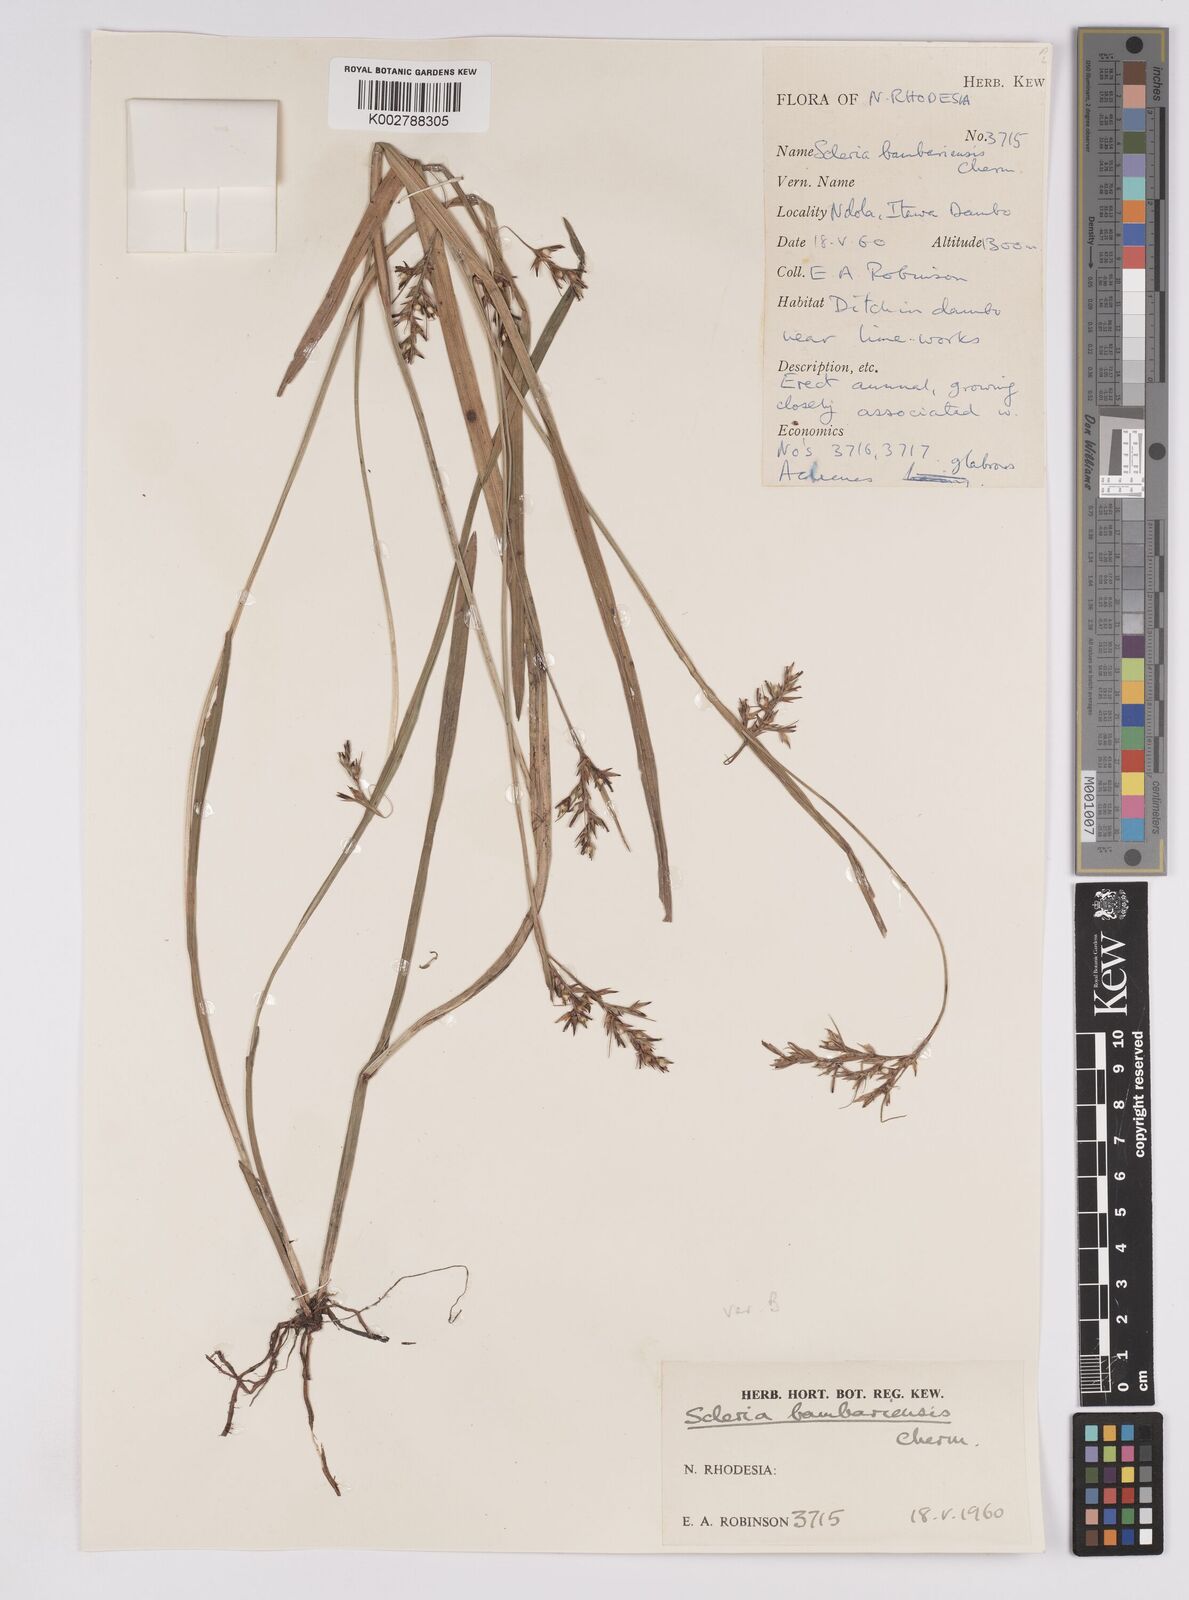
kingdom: Plantae
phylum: Tracheophyta
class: Liliopsida
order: Poales
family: Cyperaceae
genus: Scleria
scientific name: Scleria bambariensis
